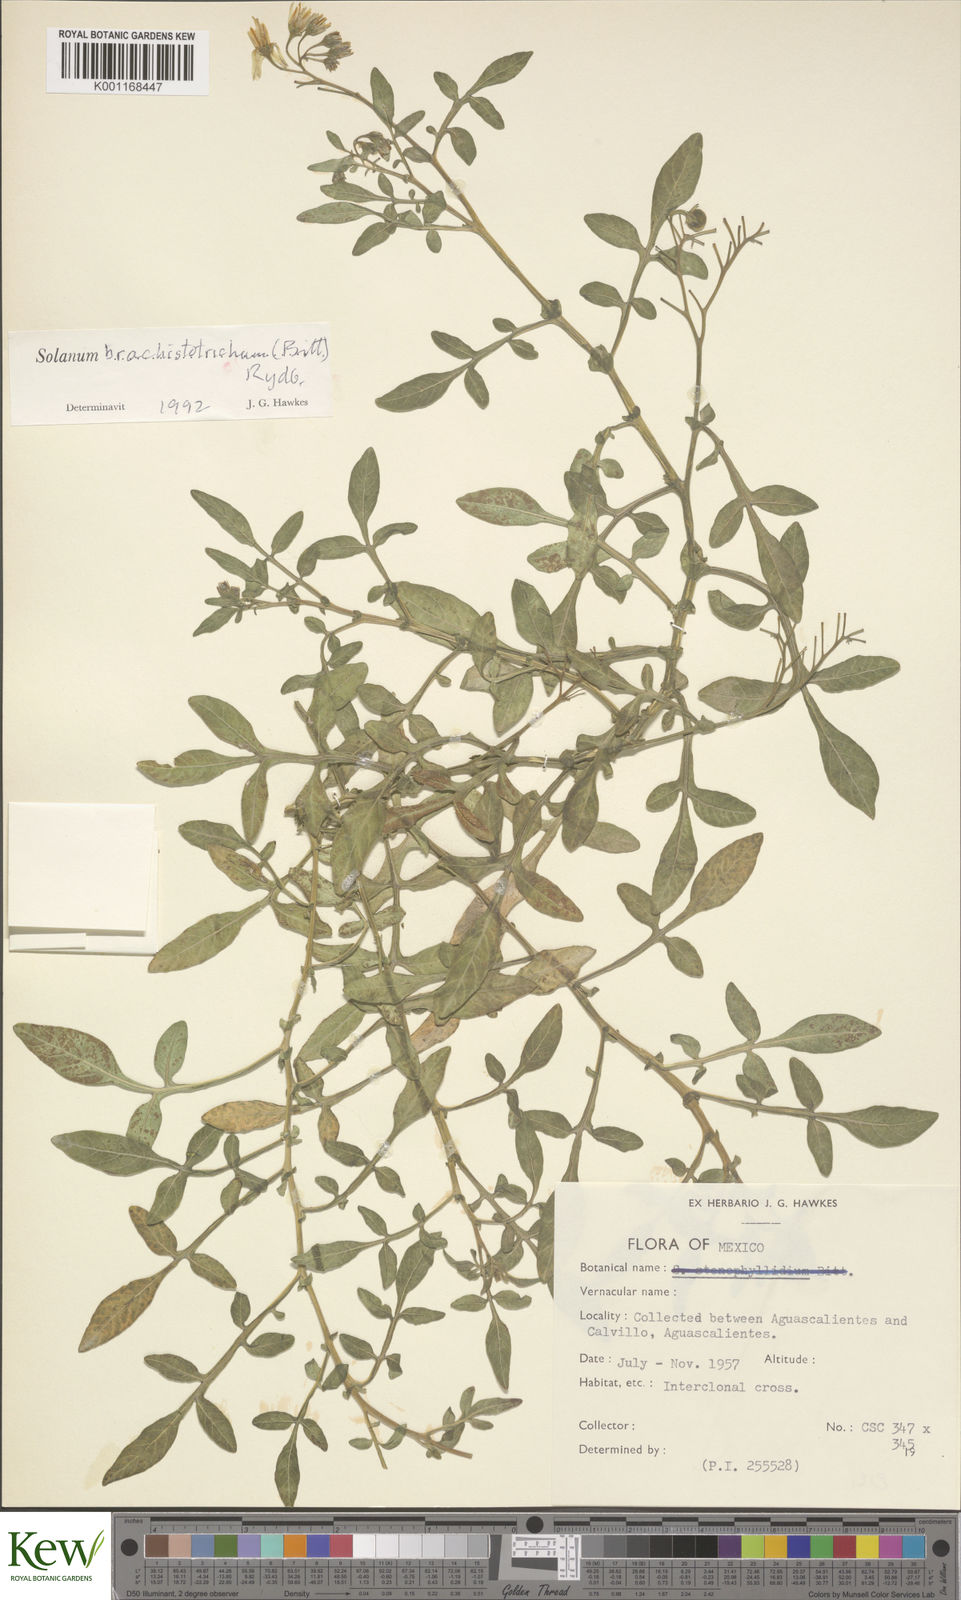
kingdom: Plantae
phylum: Tracheophyta
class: Magnoliopsida
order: Solanales
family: Solanaceae
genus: Solanum
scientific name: Solanum
